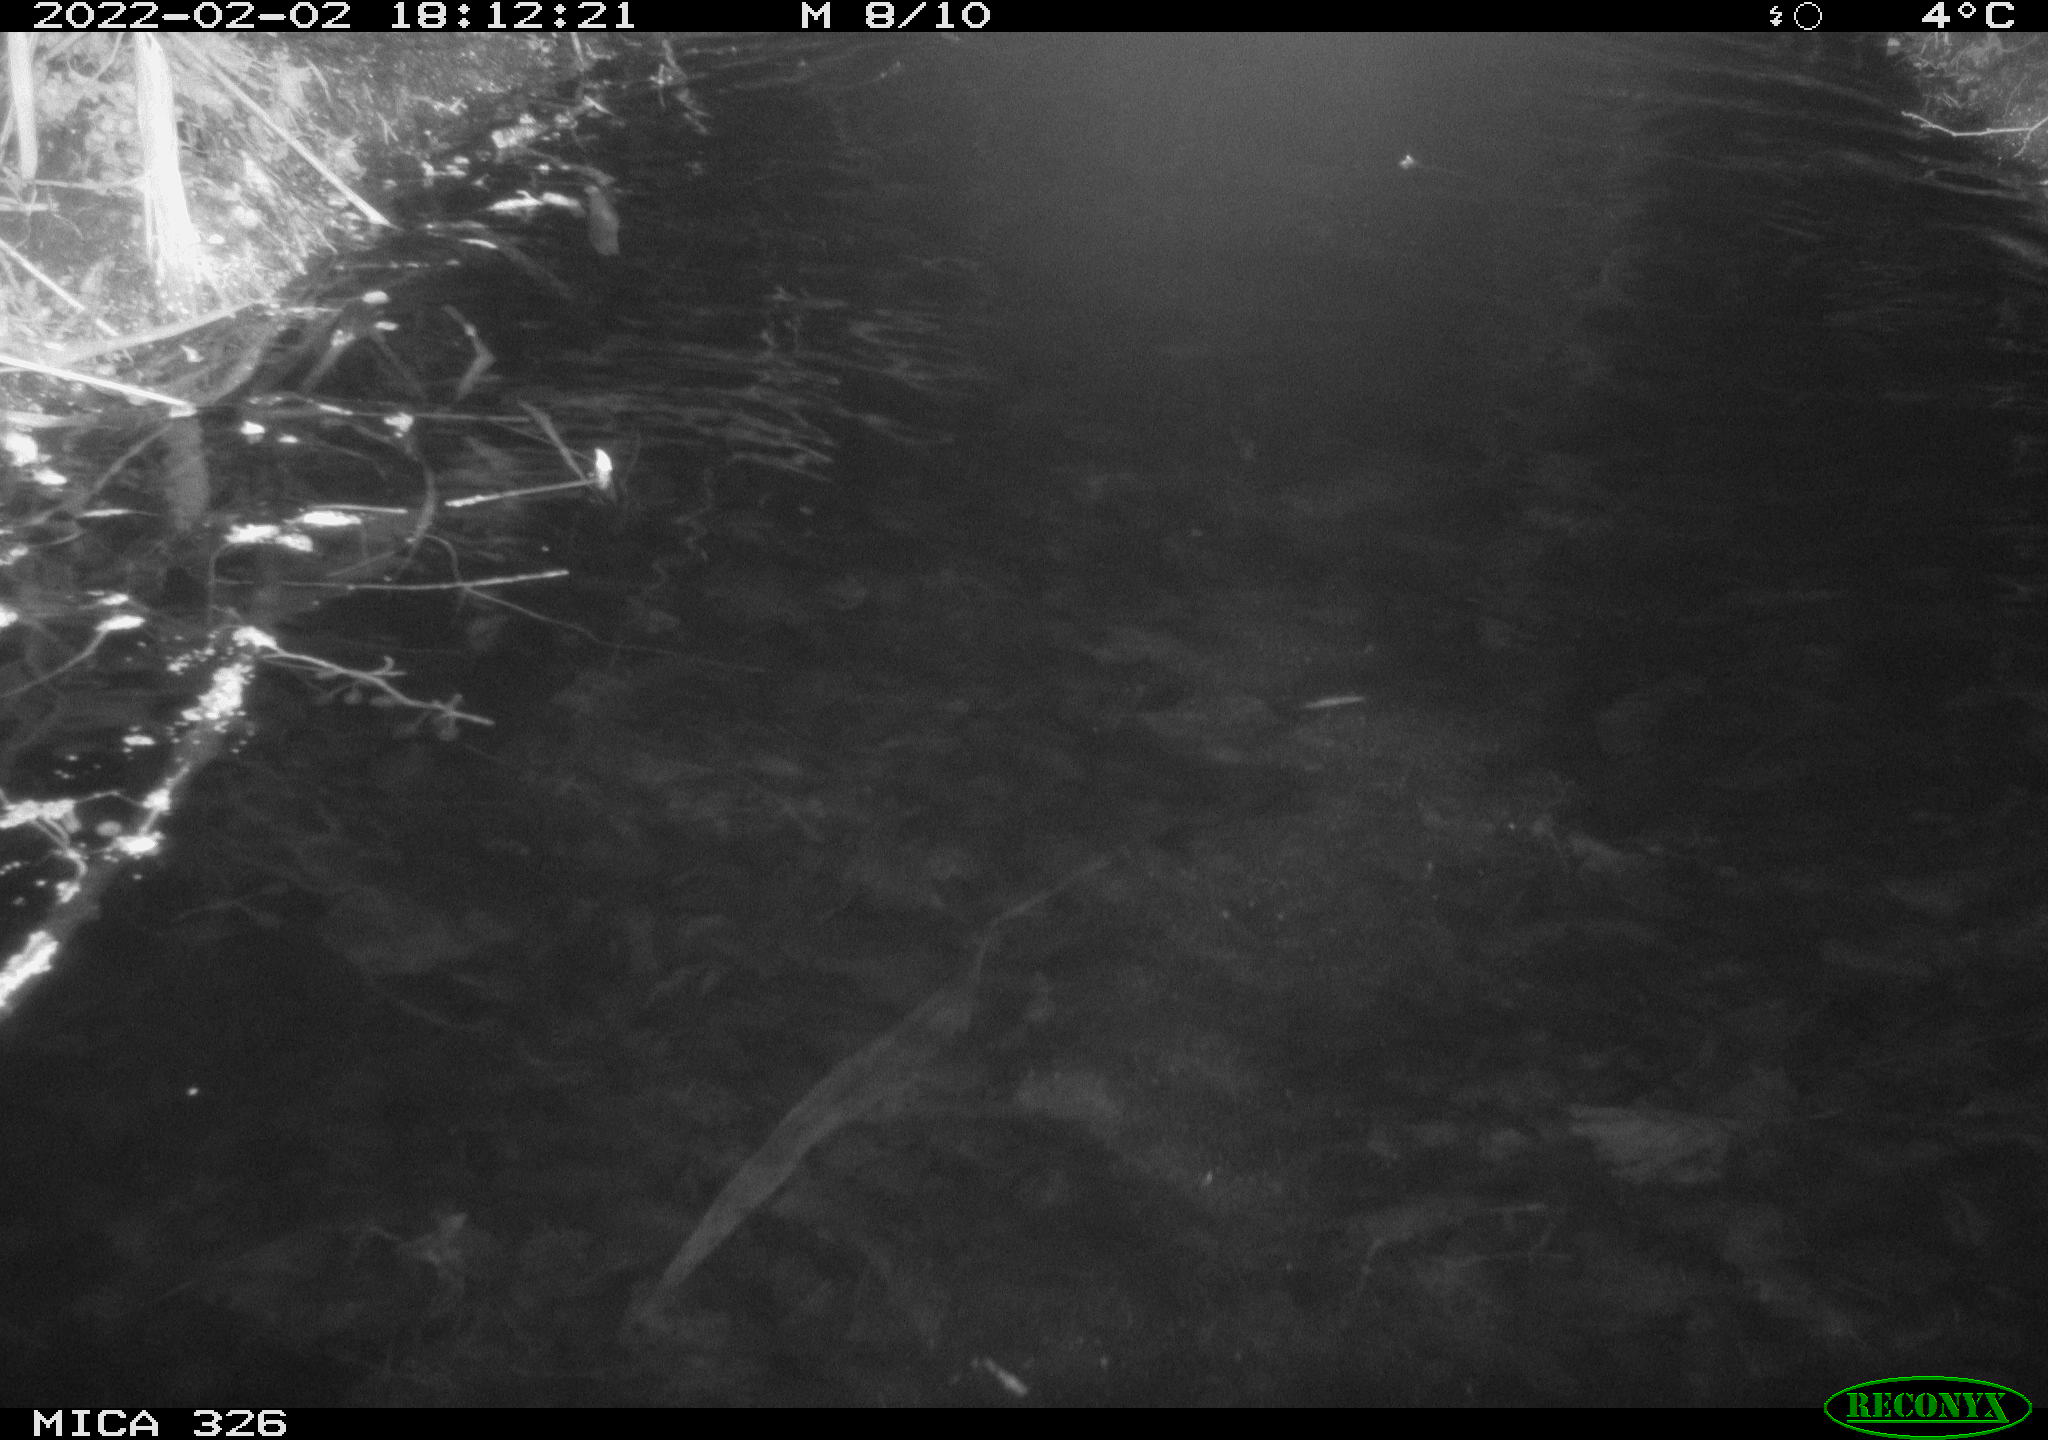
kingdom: Animalia
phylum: Chordata
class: Mammalia
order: Rodentia
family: Cricetidae
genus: Ondatra
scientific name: Ondatra zibethicus
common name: Muskrat
